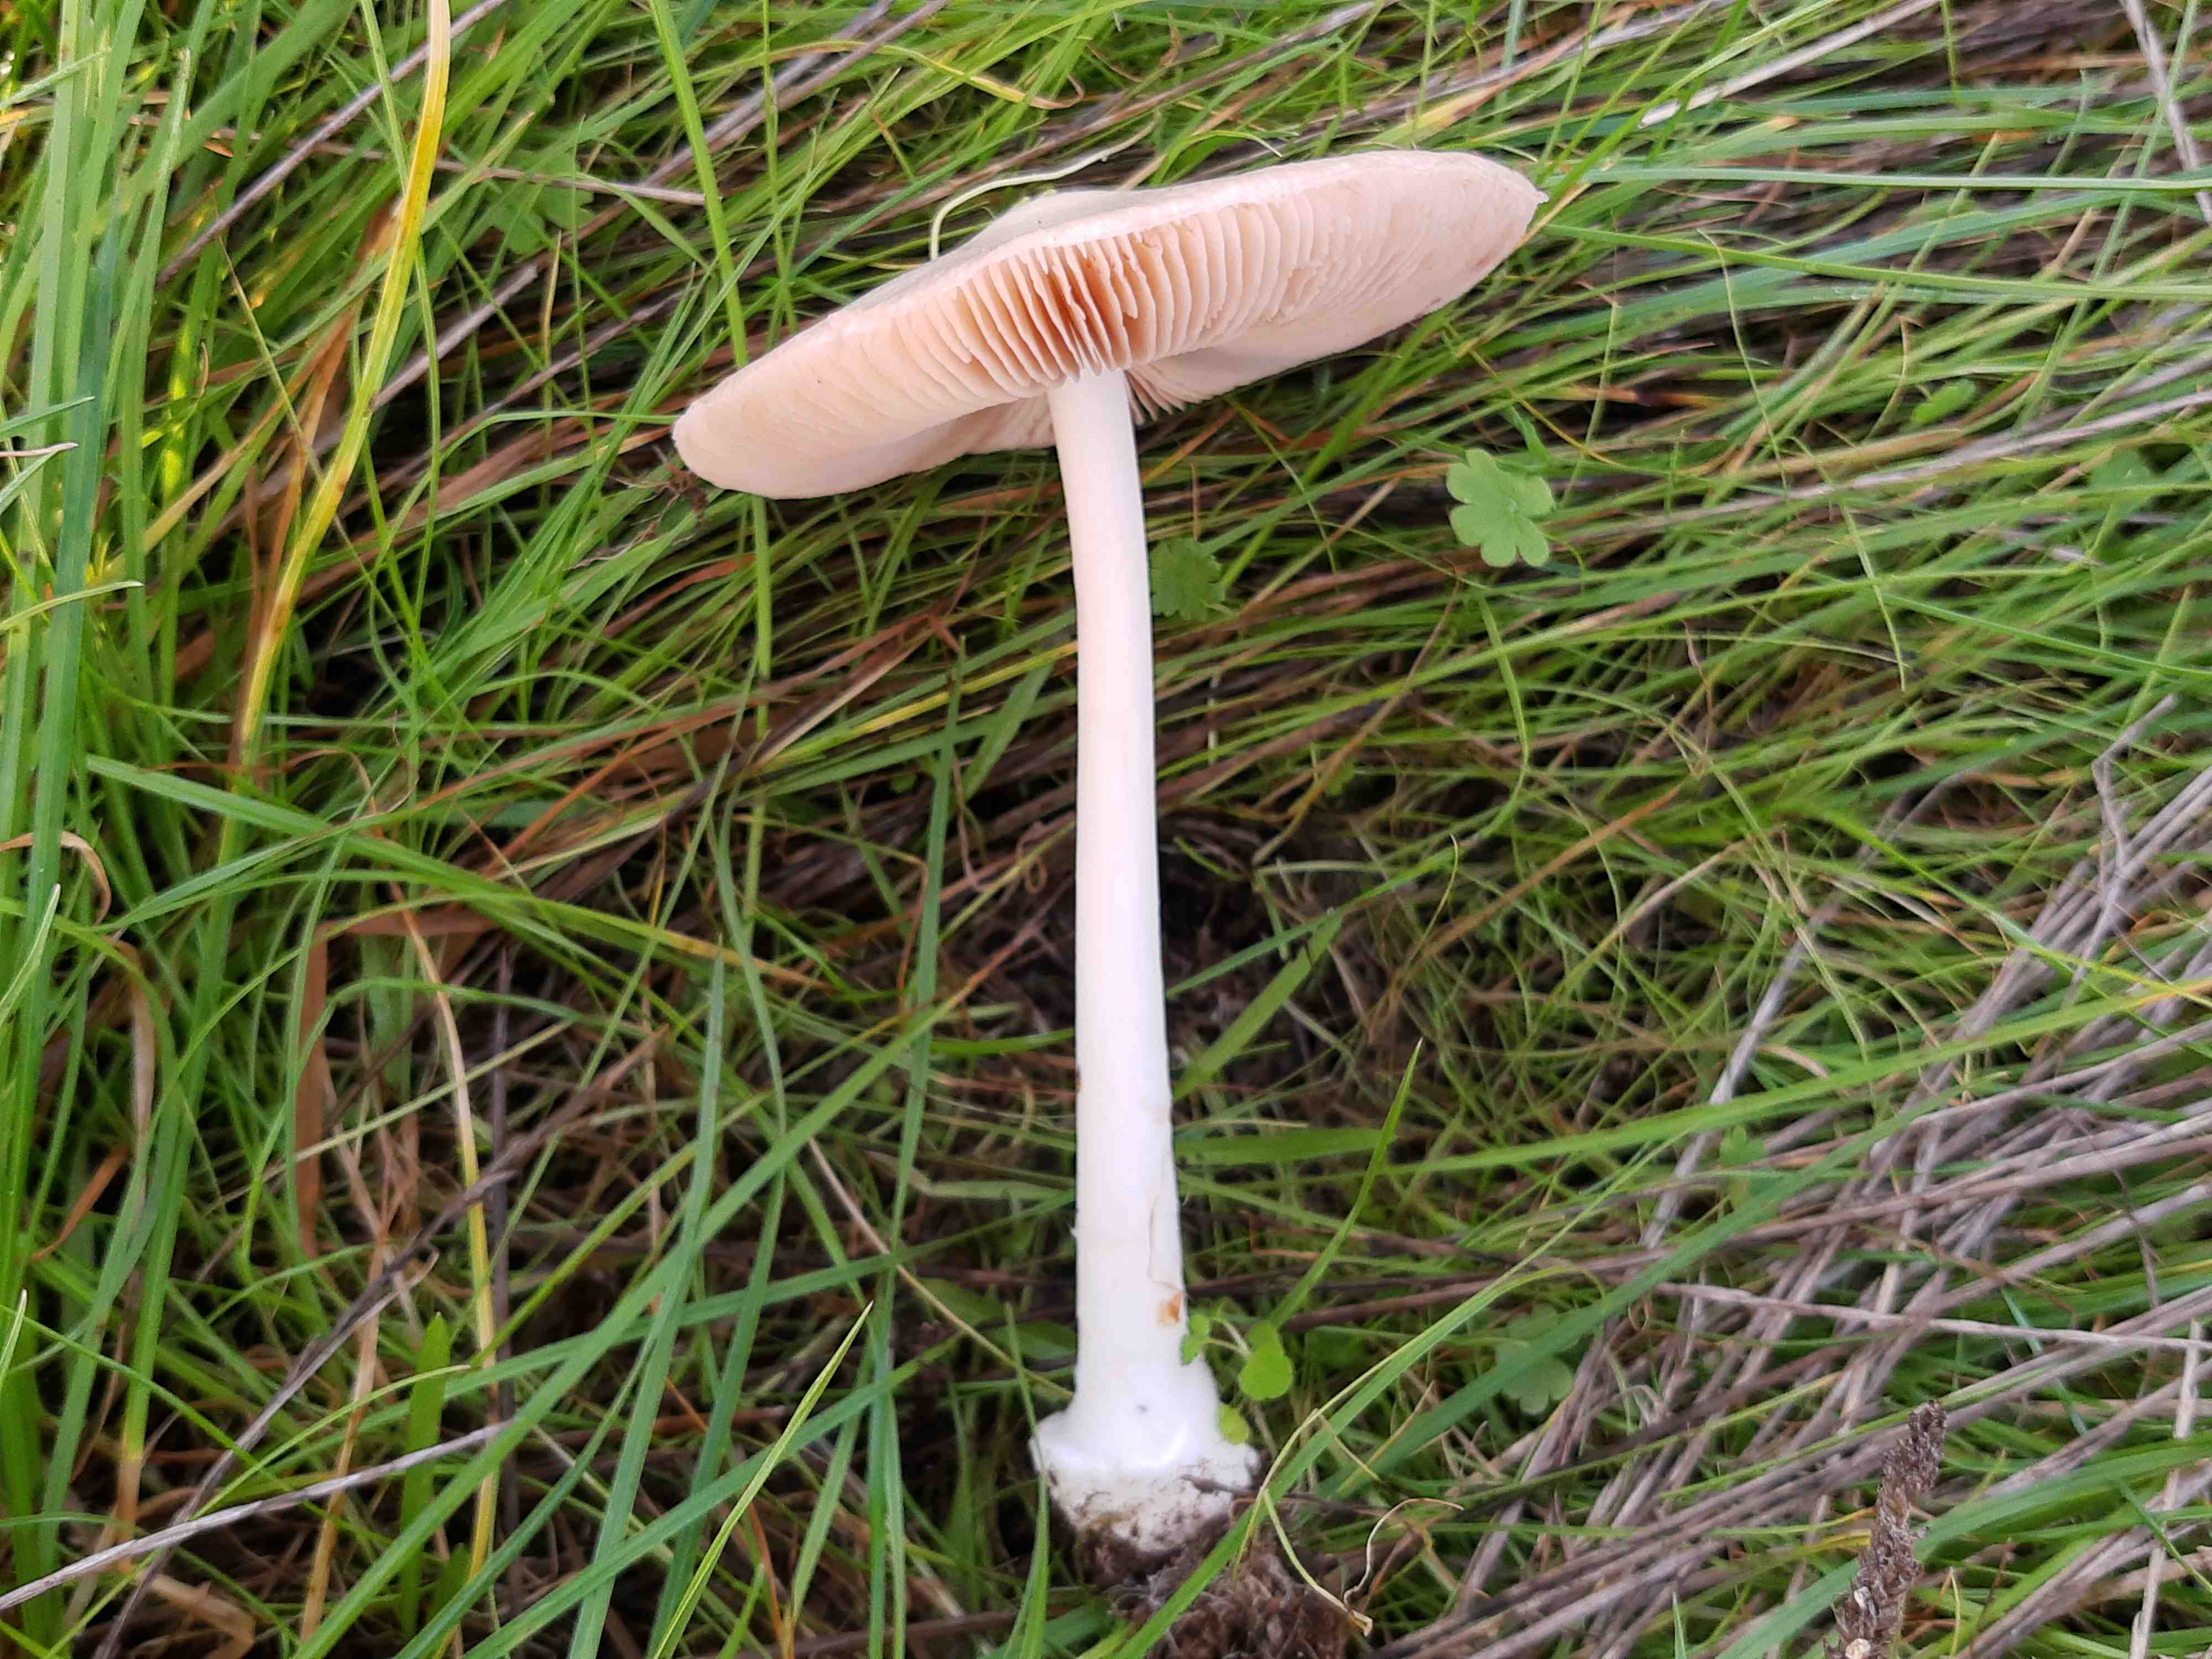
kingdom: Fungi
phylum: Basidiomycota
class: Agaricomycetes
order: Agaricales
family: Pluteaceae
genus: Volvopluteus
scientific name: Volvopluteus gloiocephalus
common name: høj posesvamp
